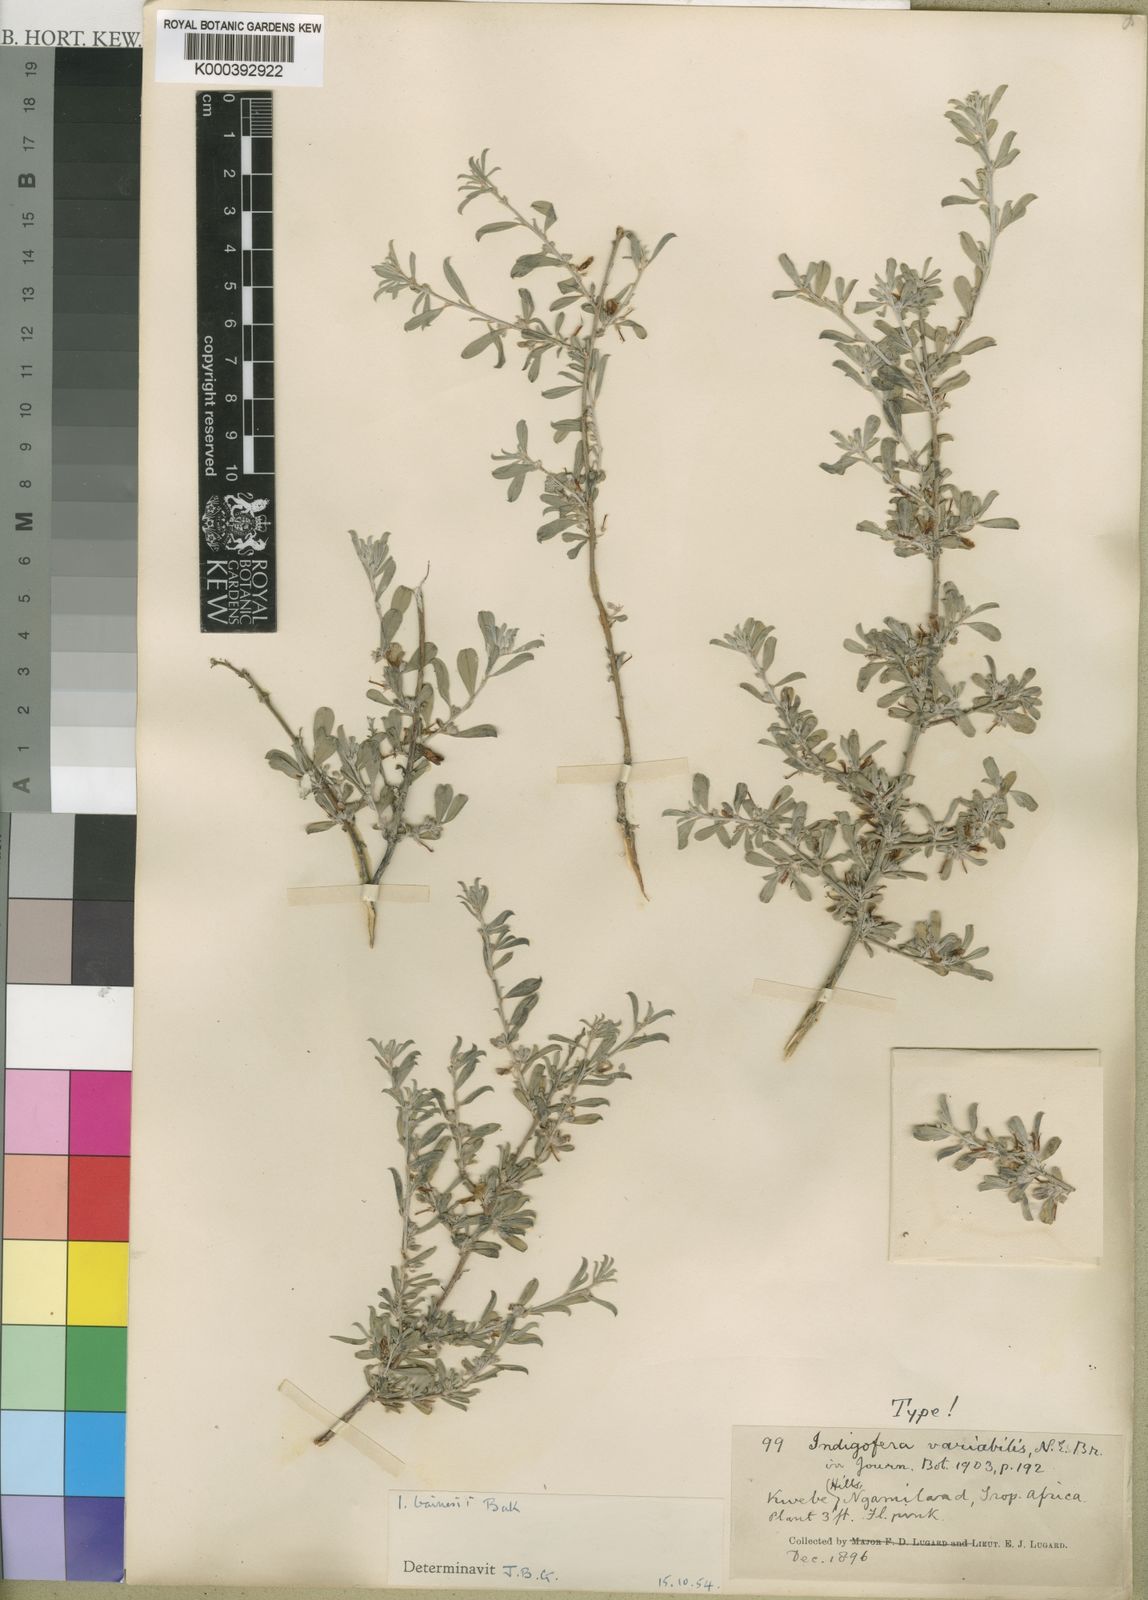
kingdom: Plantae
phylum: Tracheophyta
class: Magnoliopsida
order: Fabales
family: Fabaceae
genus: Indigofera
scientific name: Indigofera bainesii
